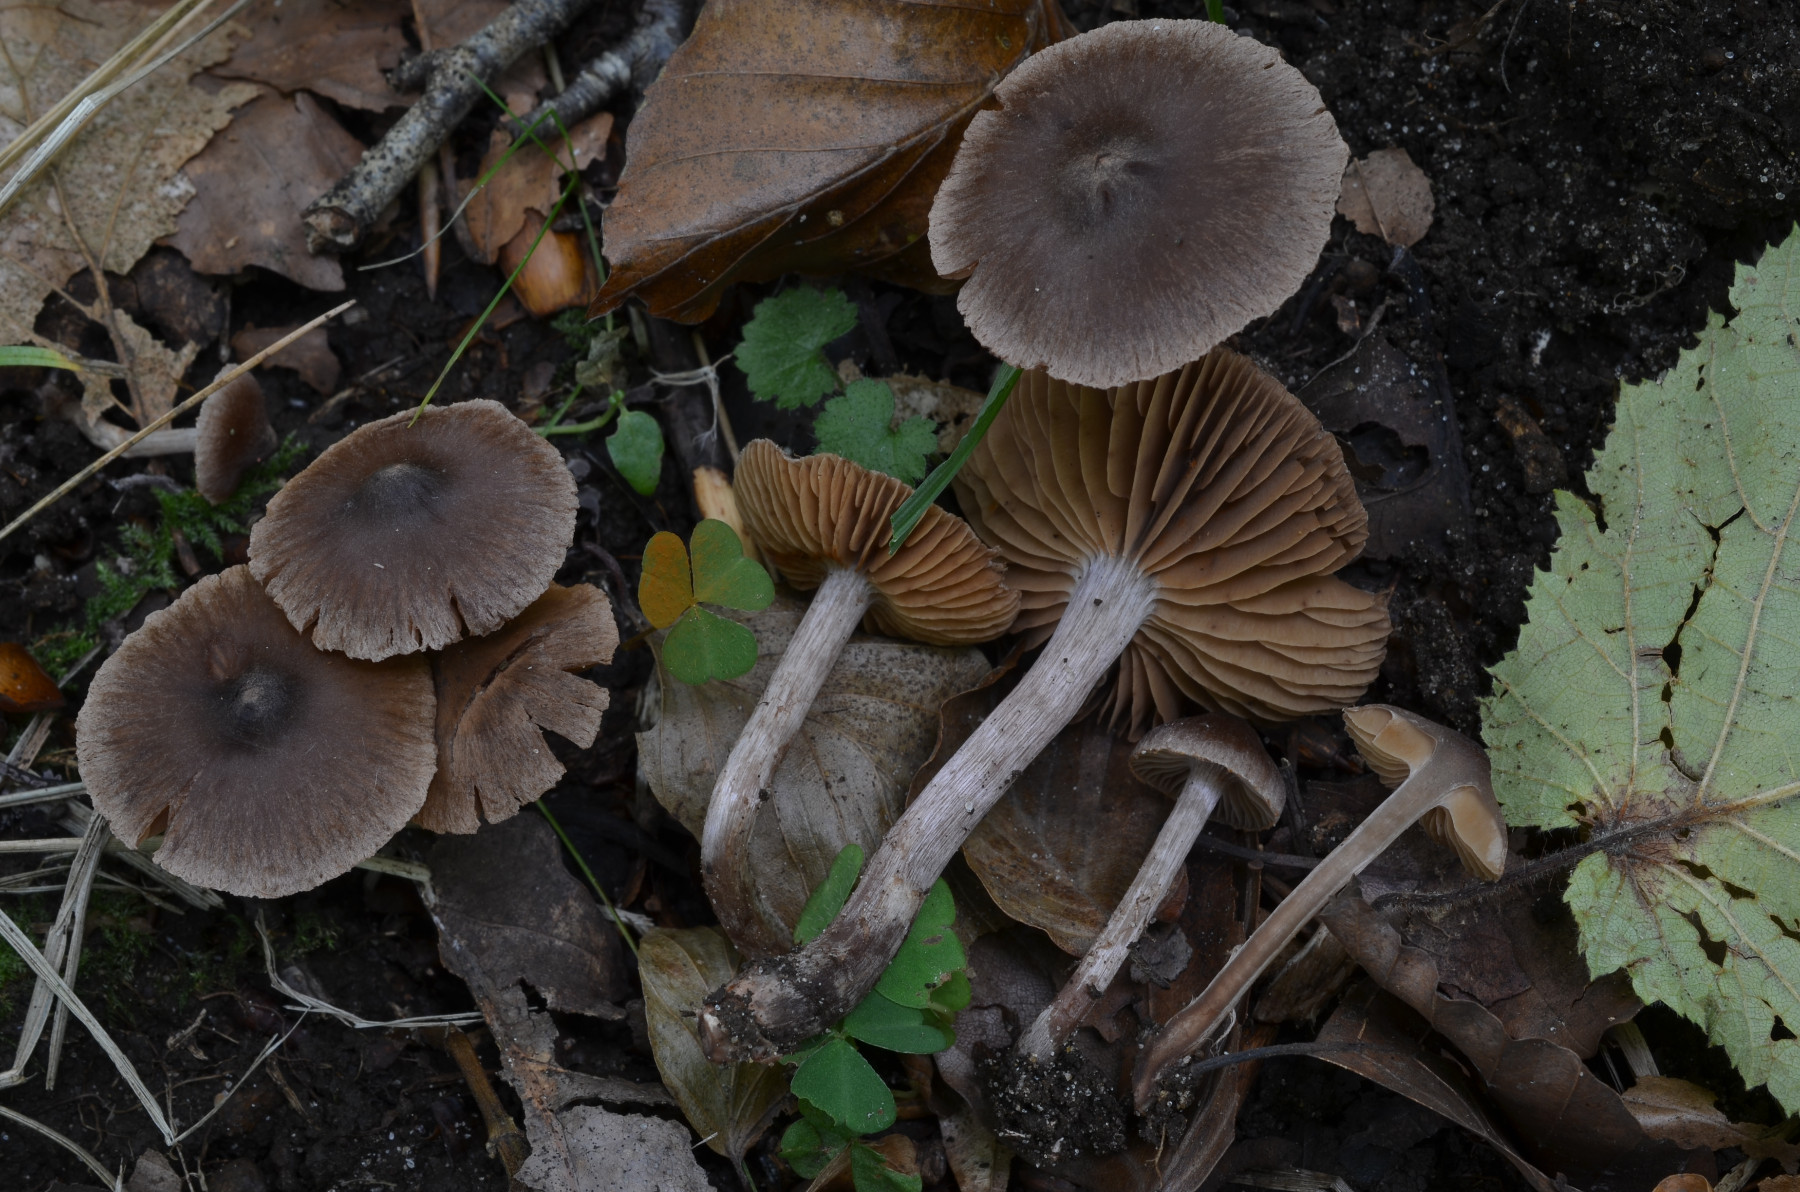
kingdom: Fungi
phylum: Basidiomycota
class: Agaricomycetes
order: Agaricales
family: Cortinariaceae
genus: Cortinarius
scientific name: Cortinarius subcastaneus
